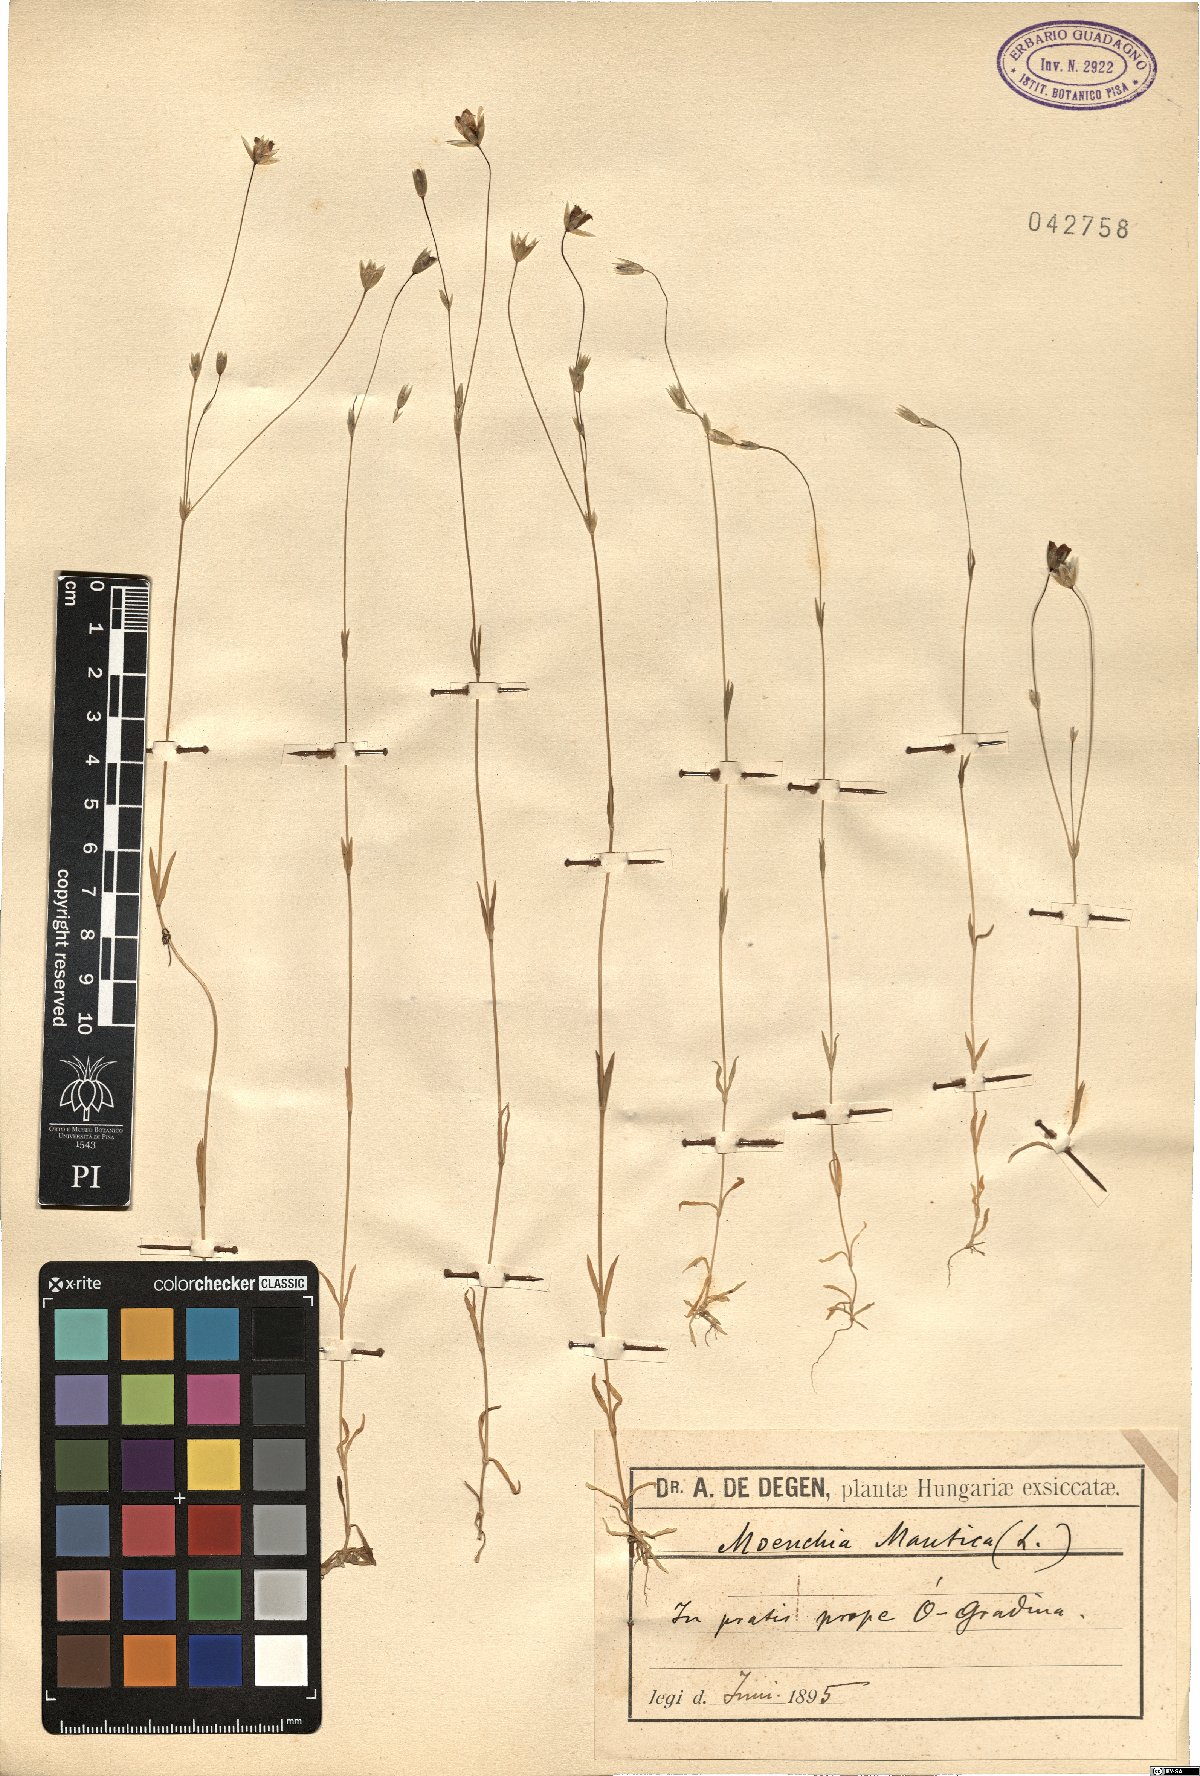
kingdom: Plantae
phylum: Tracheophyta
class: Magnoliopsida
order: Caryophyllales
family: Caryophyllaceae
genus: Moenchia
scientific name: Moenchia mantica
